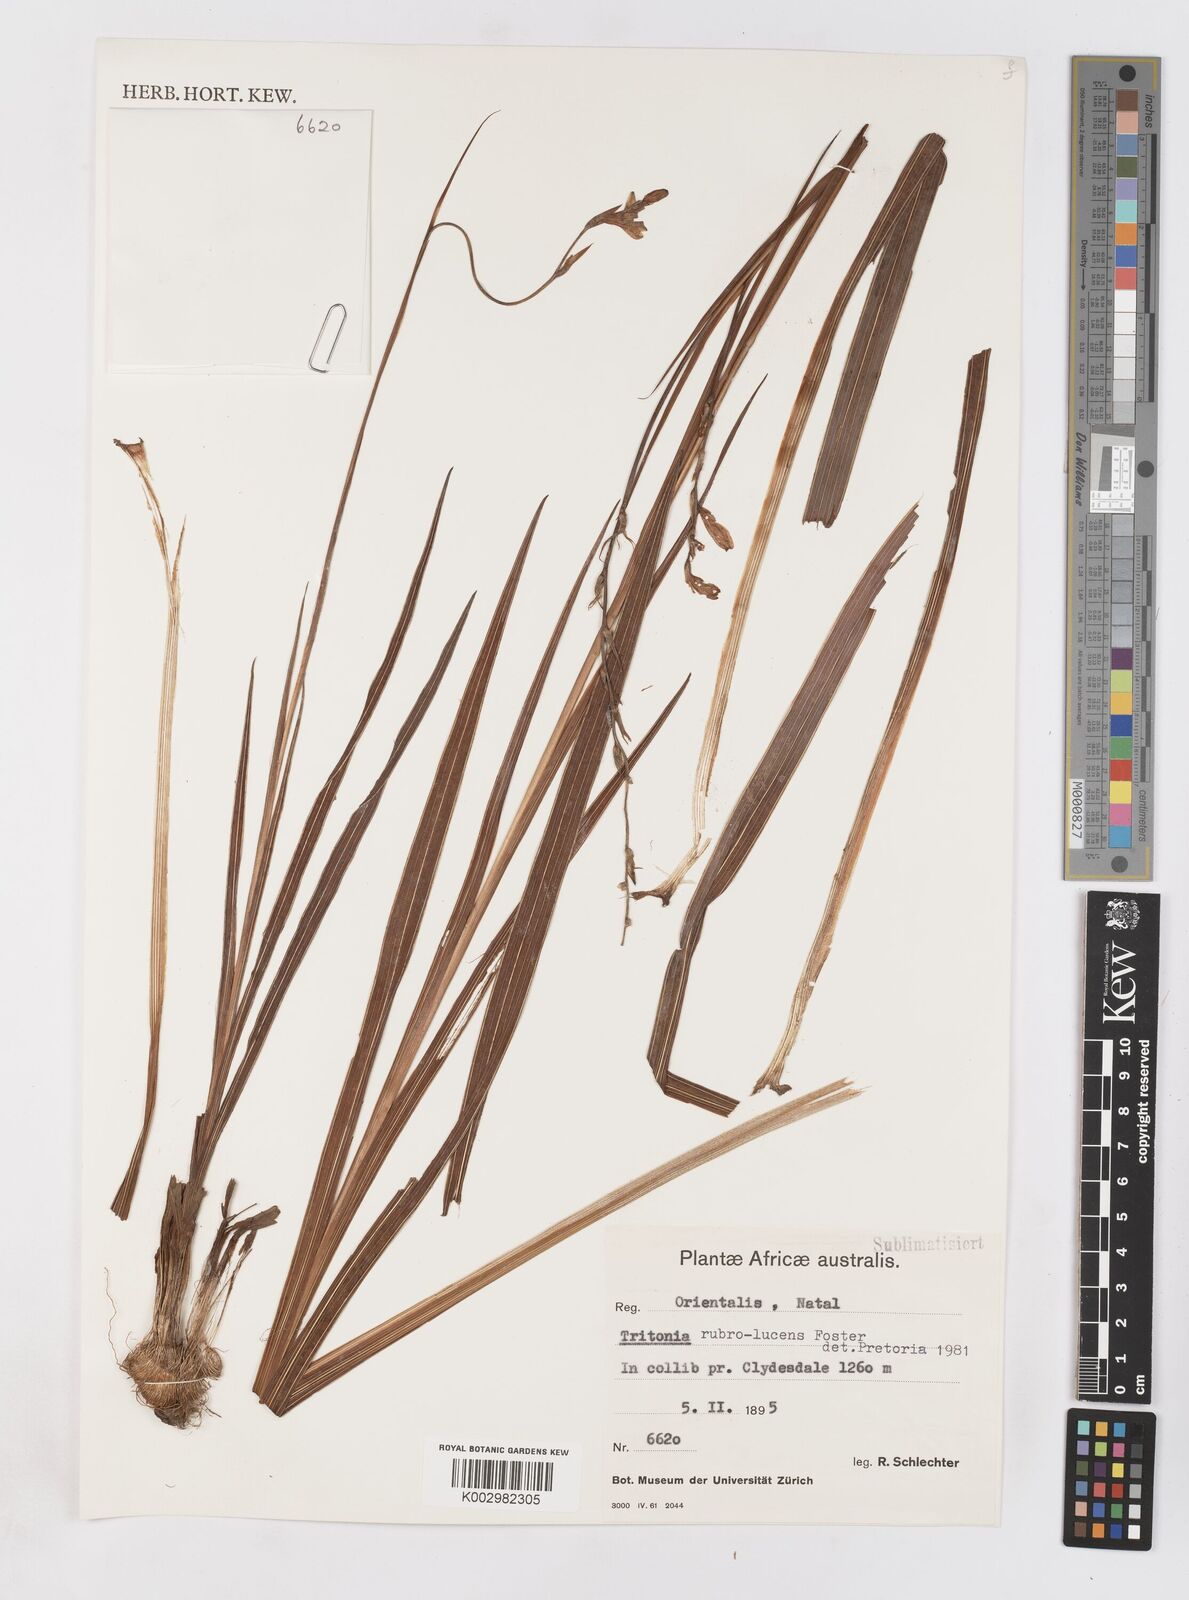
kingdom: Plantae
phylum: Tracheophyta
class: Liliopsida
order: Asparagales
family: Iridaceae
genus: Tritonia
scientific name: Tritonia disticha
